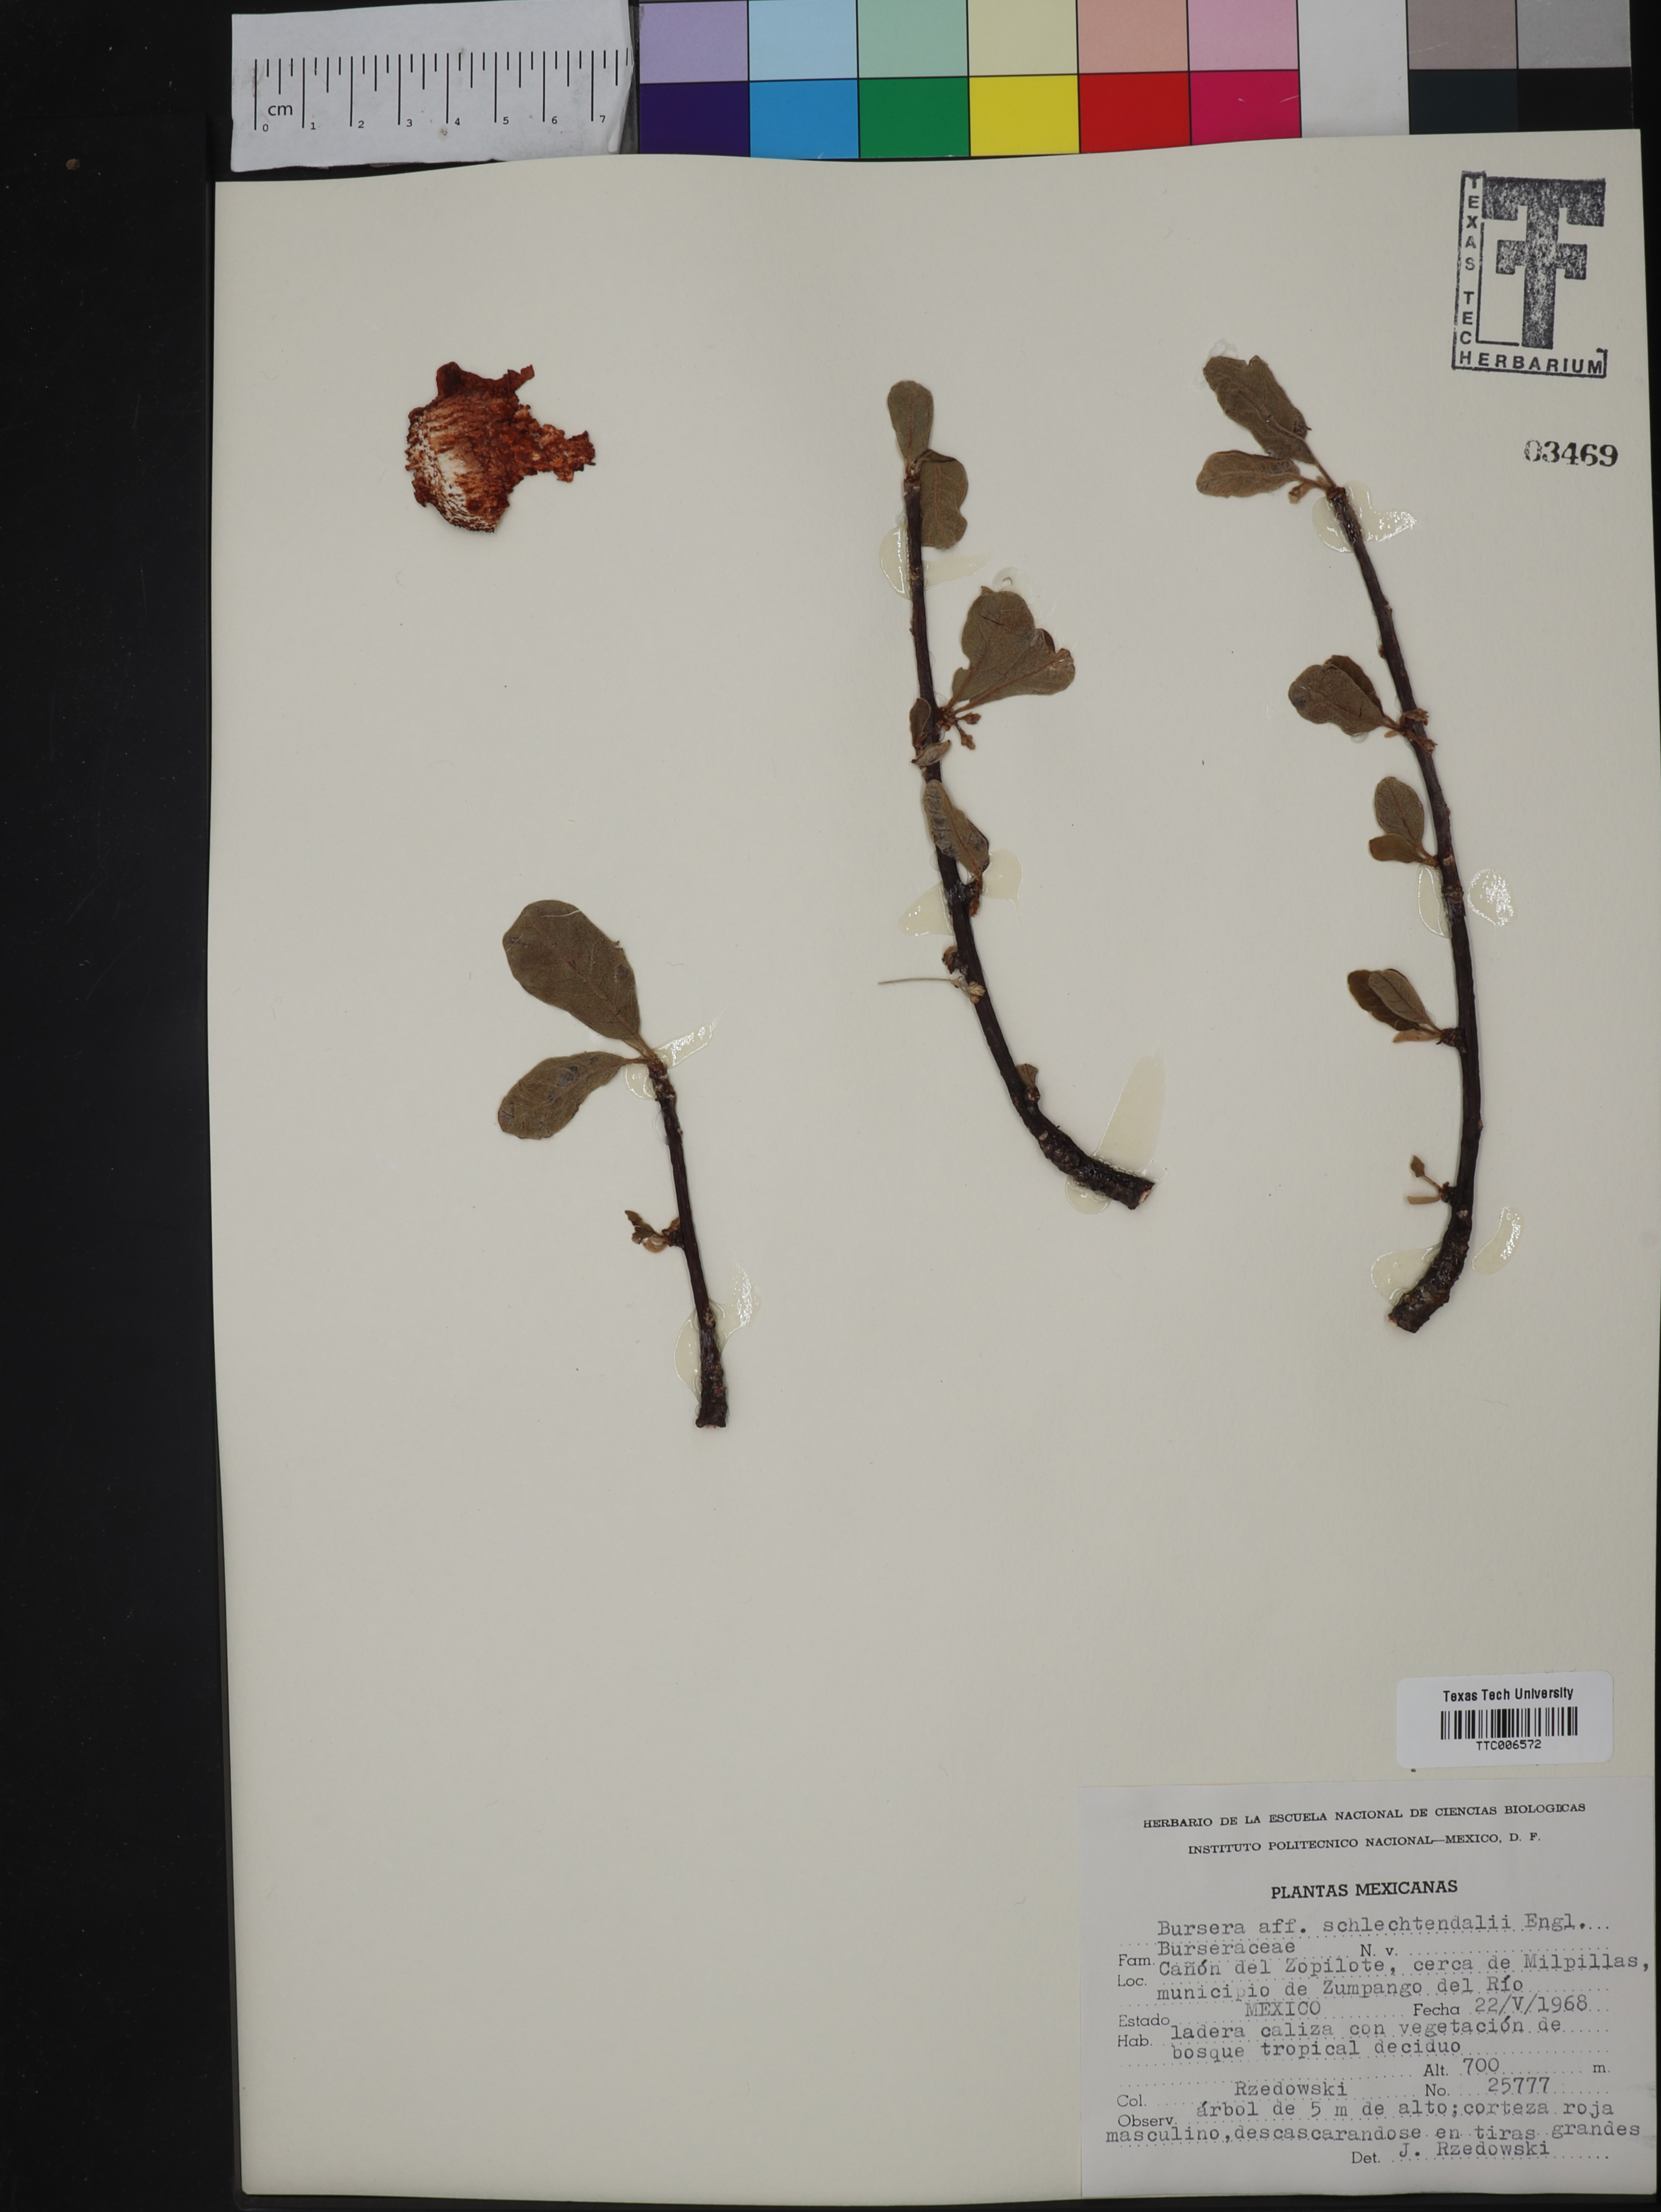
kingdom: Plantae
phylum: Tracheophyta
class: Magnoliopsida
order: Sapindales
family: Burseraceae
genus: Bursera
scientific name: Bursera schlechtendalii
